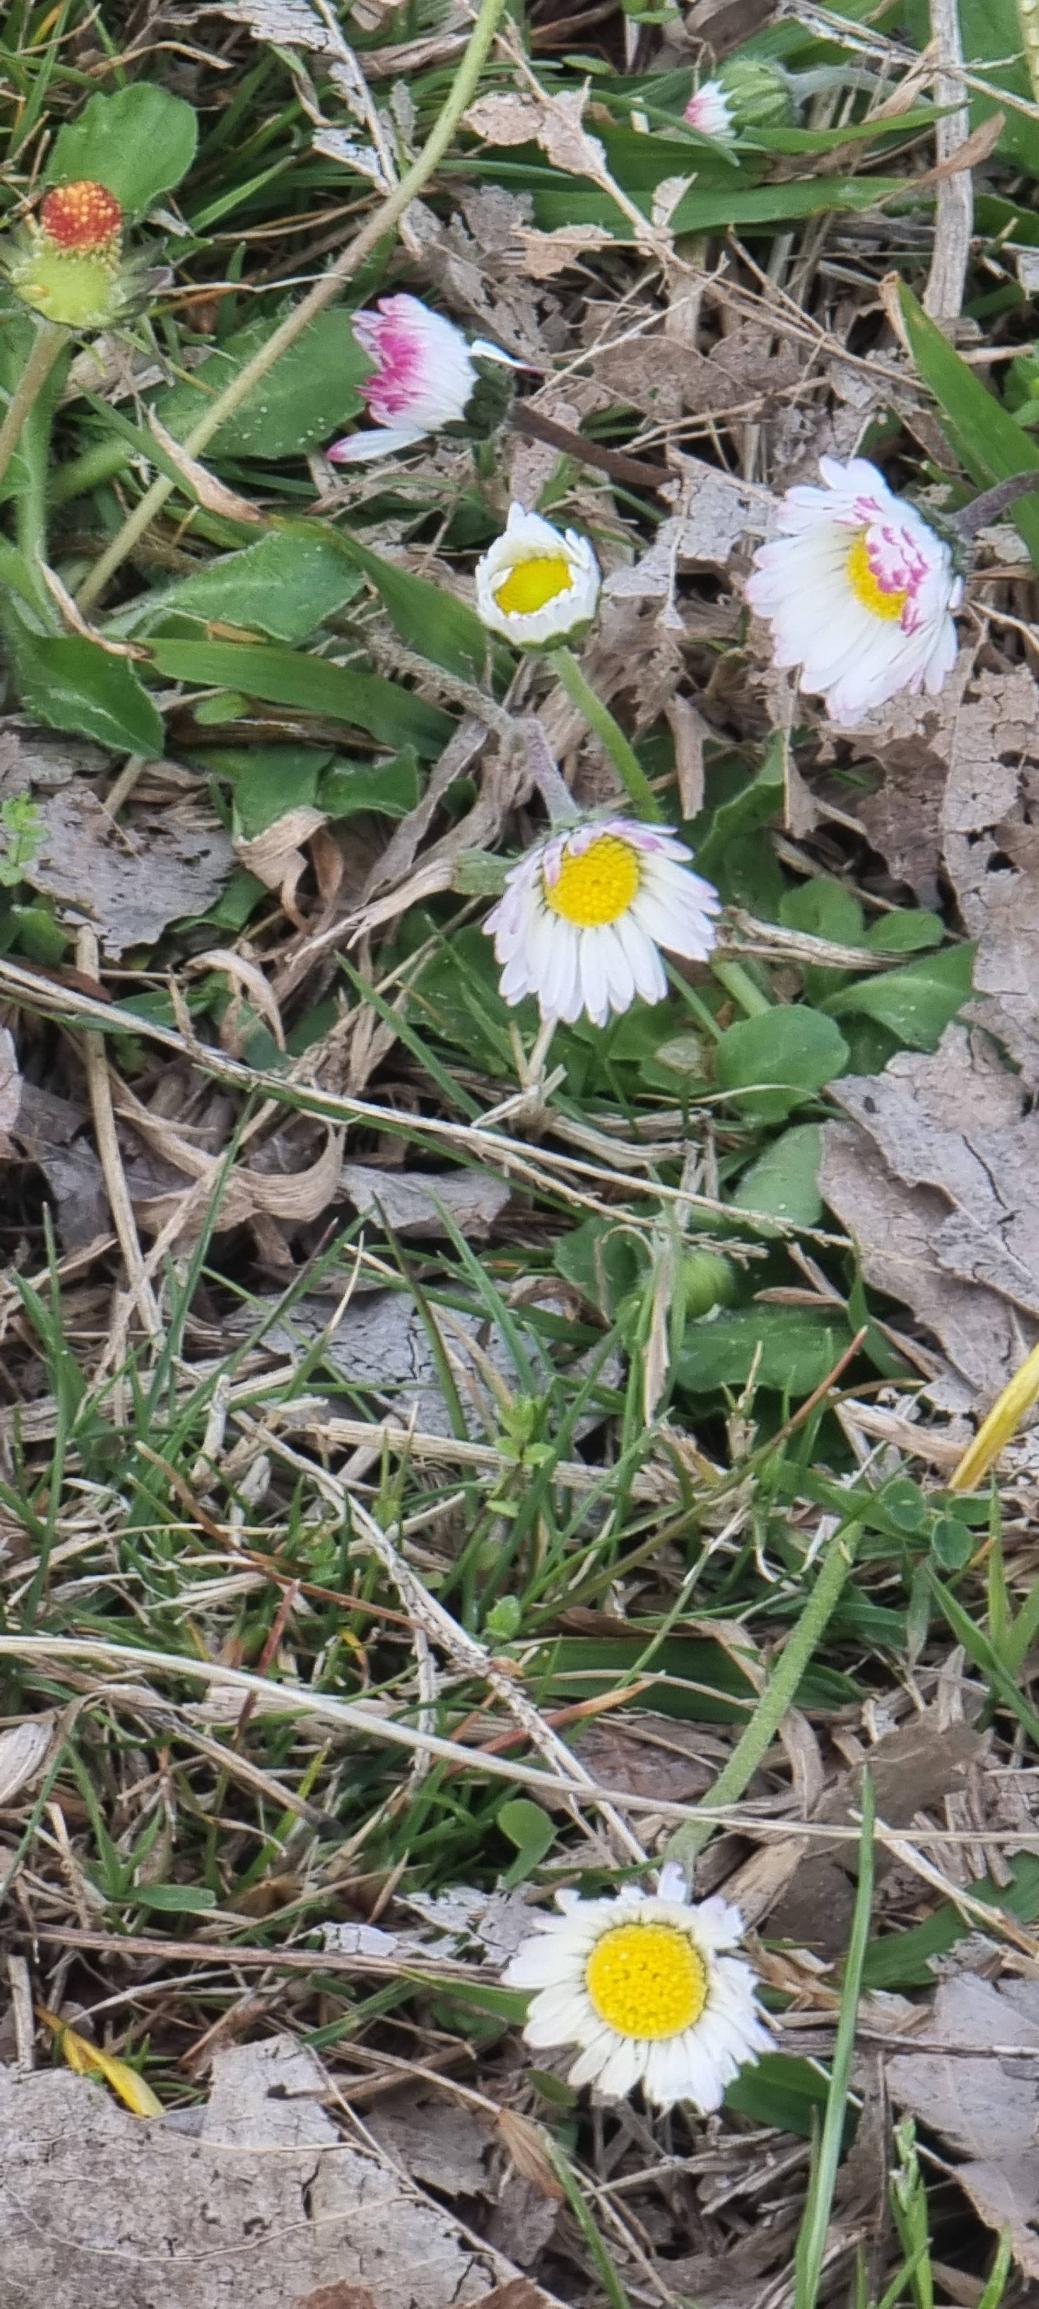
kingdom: Plantae
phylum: Tracheophyta
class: Magnoliopsida
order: Asterales
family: Asteraceae
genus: Bellis
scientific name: Bellis perennis
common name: Tusindfryd
